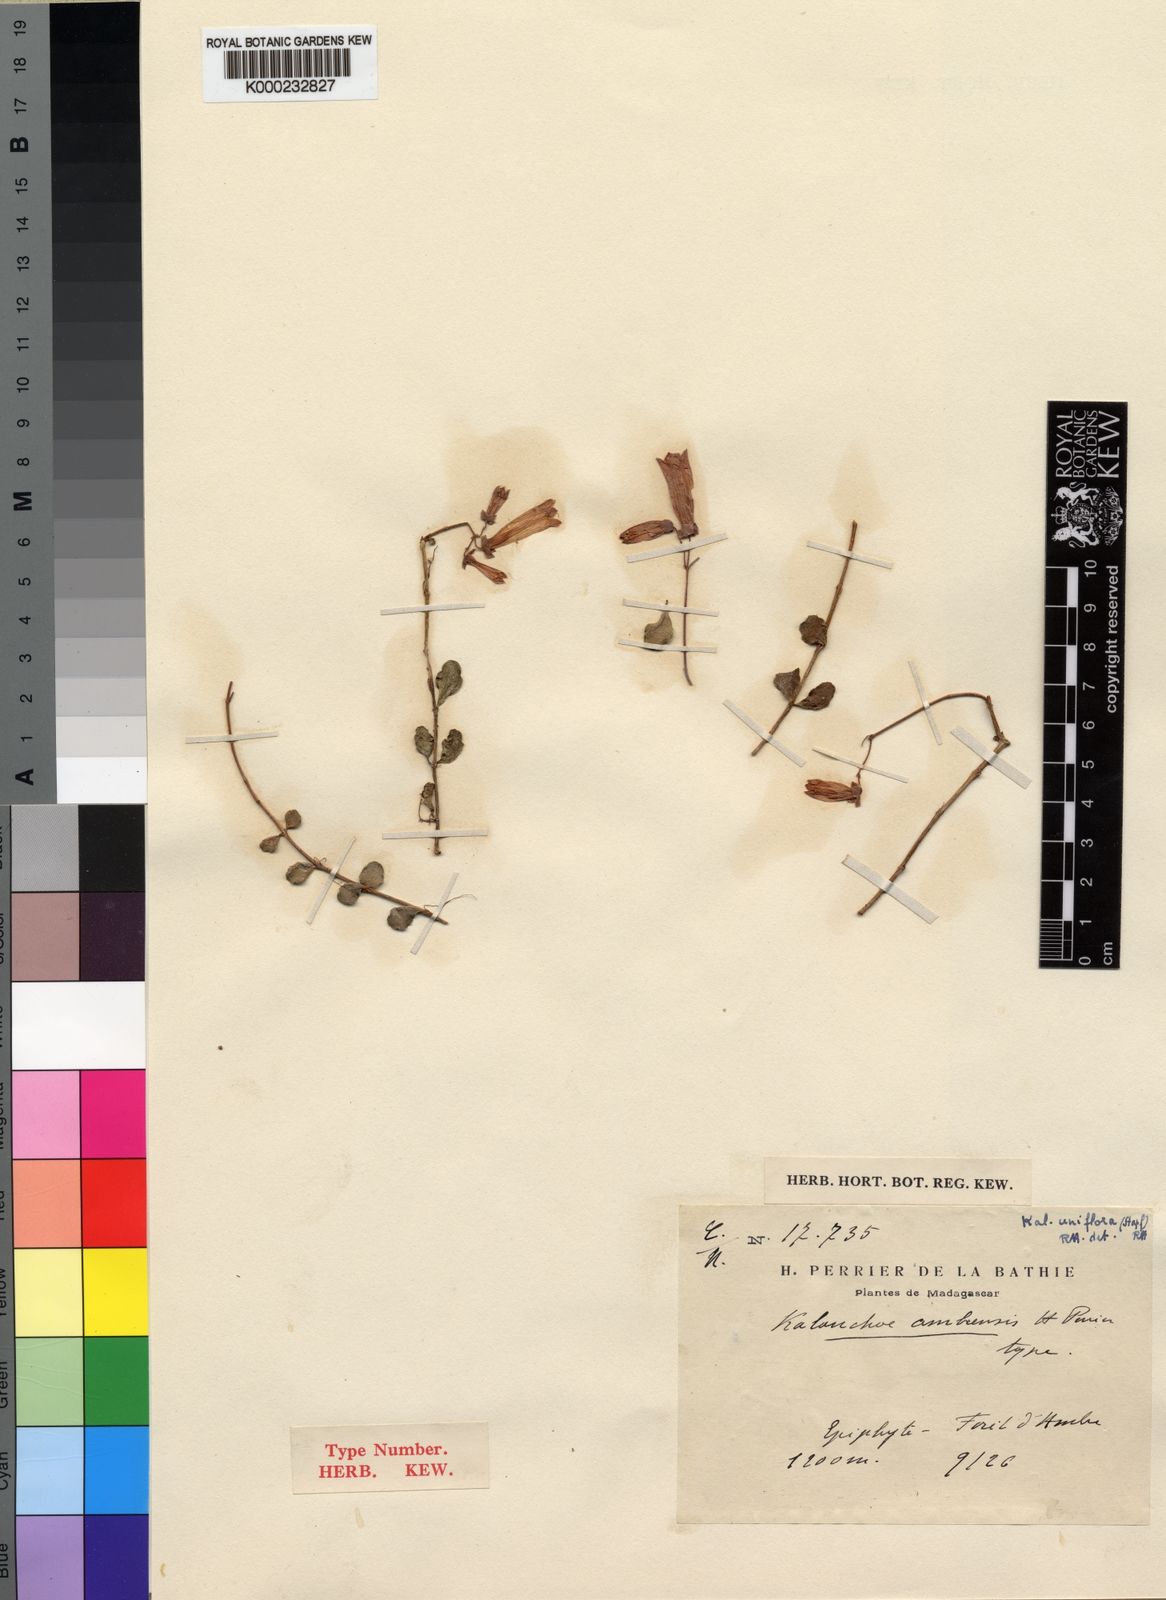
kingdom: Plantae
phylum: Tracheophyta
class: Magnoliopsida
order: Saxifragales
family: Crassulaceae
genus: Kalanchoe
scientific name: Kalanchoe uniflora
